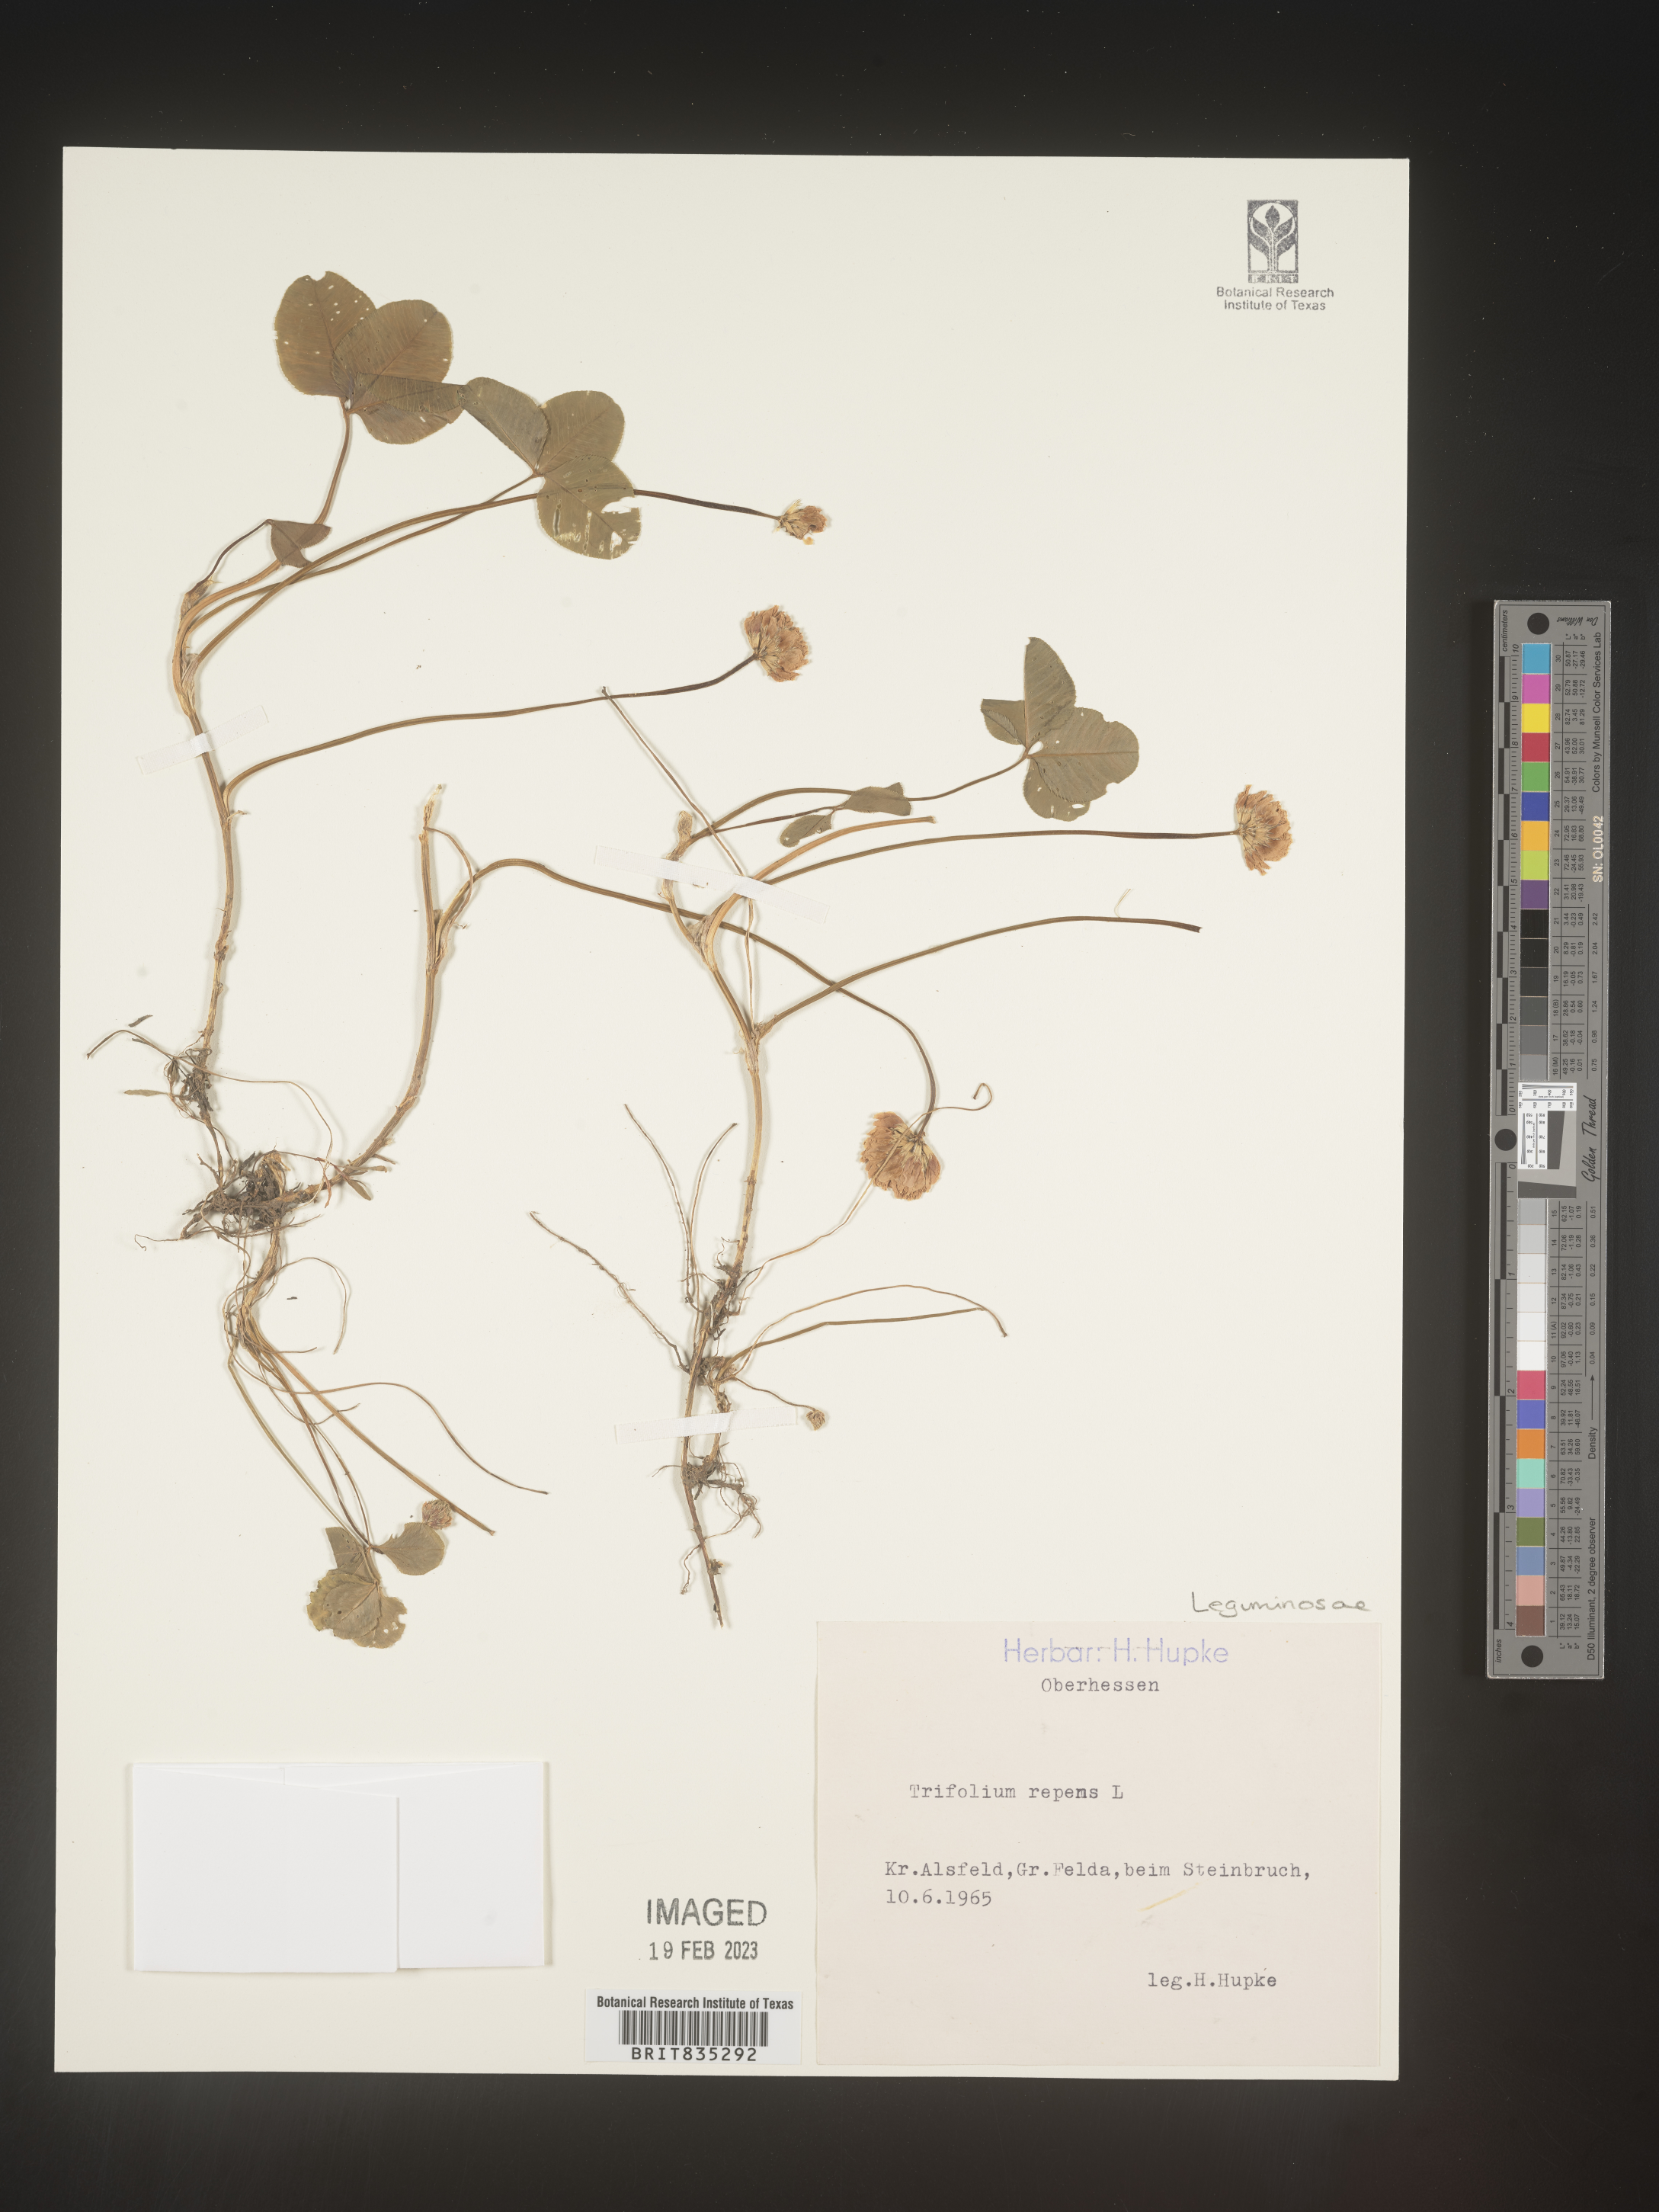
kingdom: Plantae
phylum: Tracheophyta
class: Magnoliopsida
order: Fabales
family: Fabaceae
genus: Trifolium
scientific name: Trifolium
